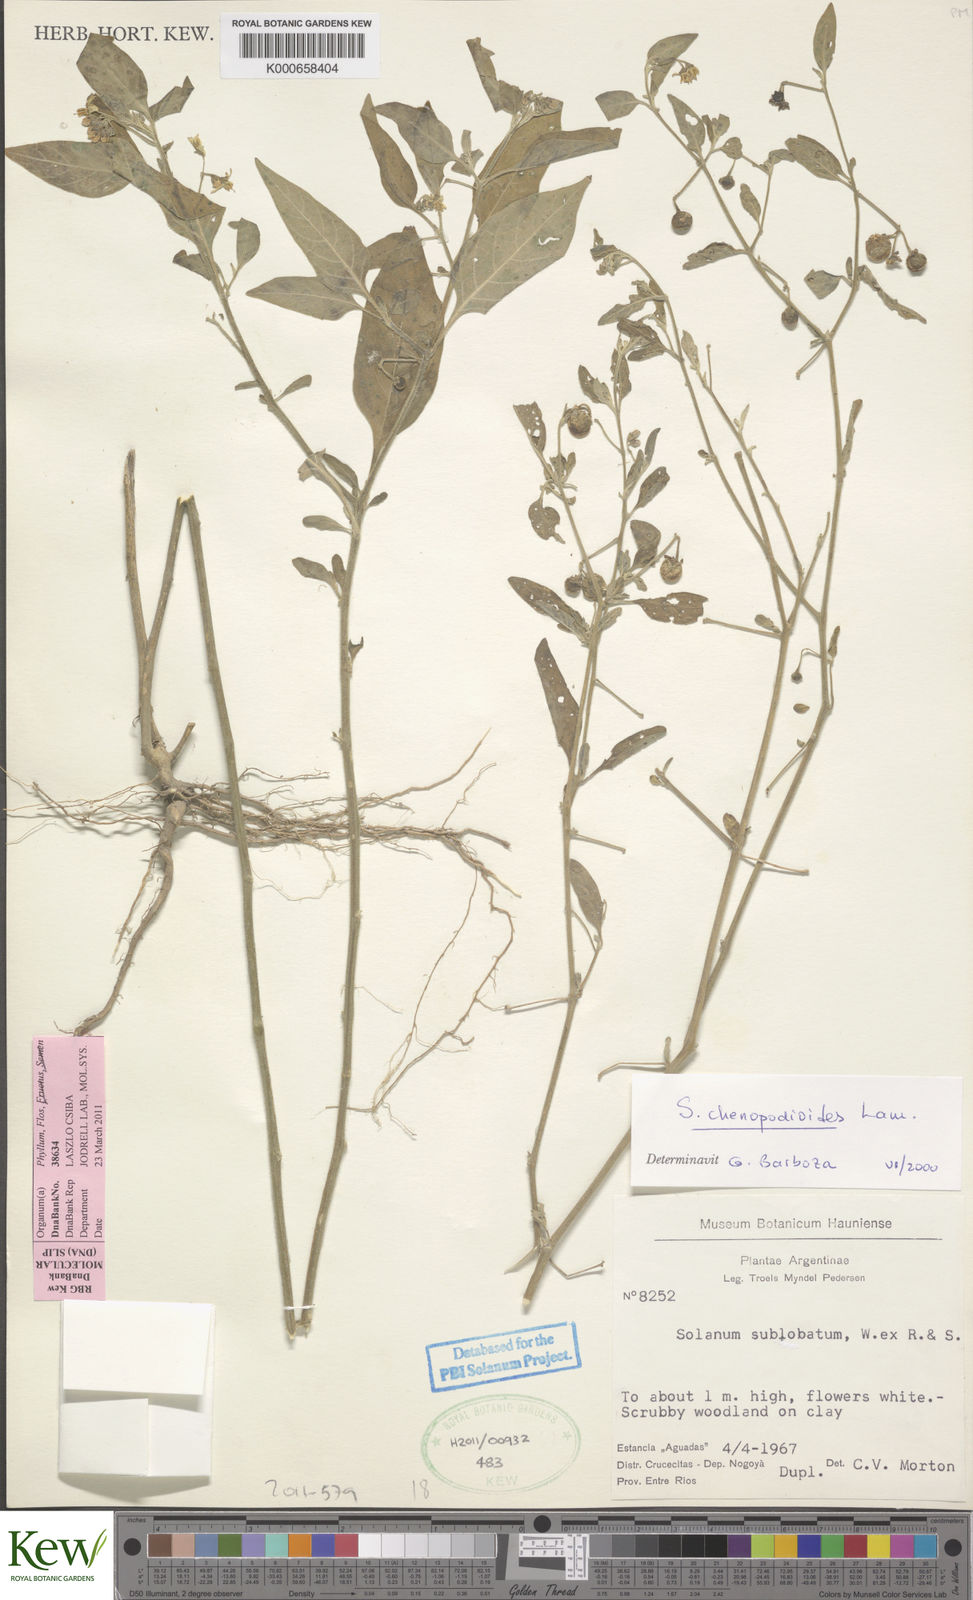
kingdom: Plantae
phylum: Tracheophyta
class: Magnoliopsida
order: Solanales
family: Solanaceae
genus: Solanum
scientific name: Solanum chenopodioides
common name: Tall nightshade
